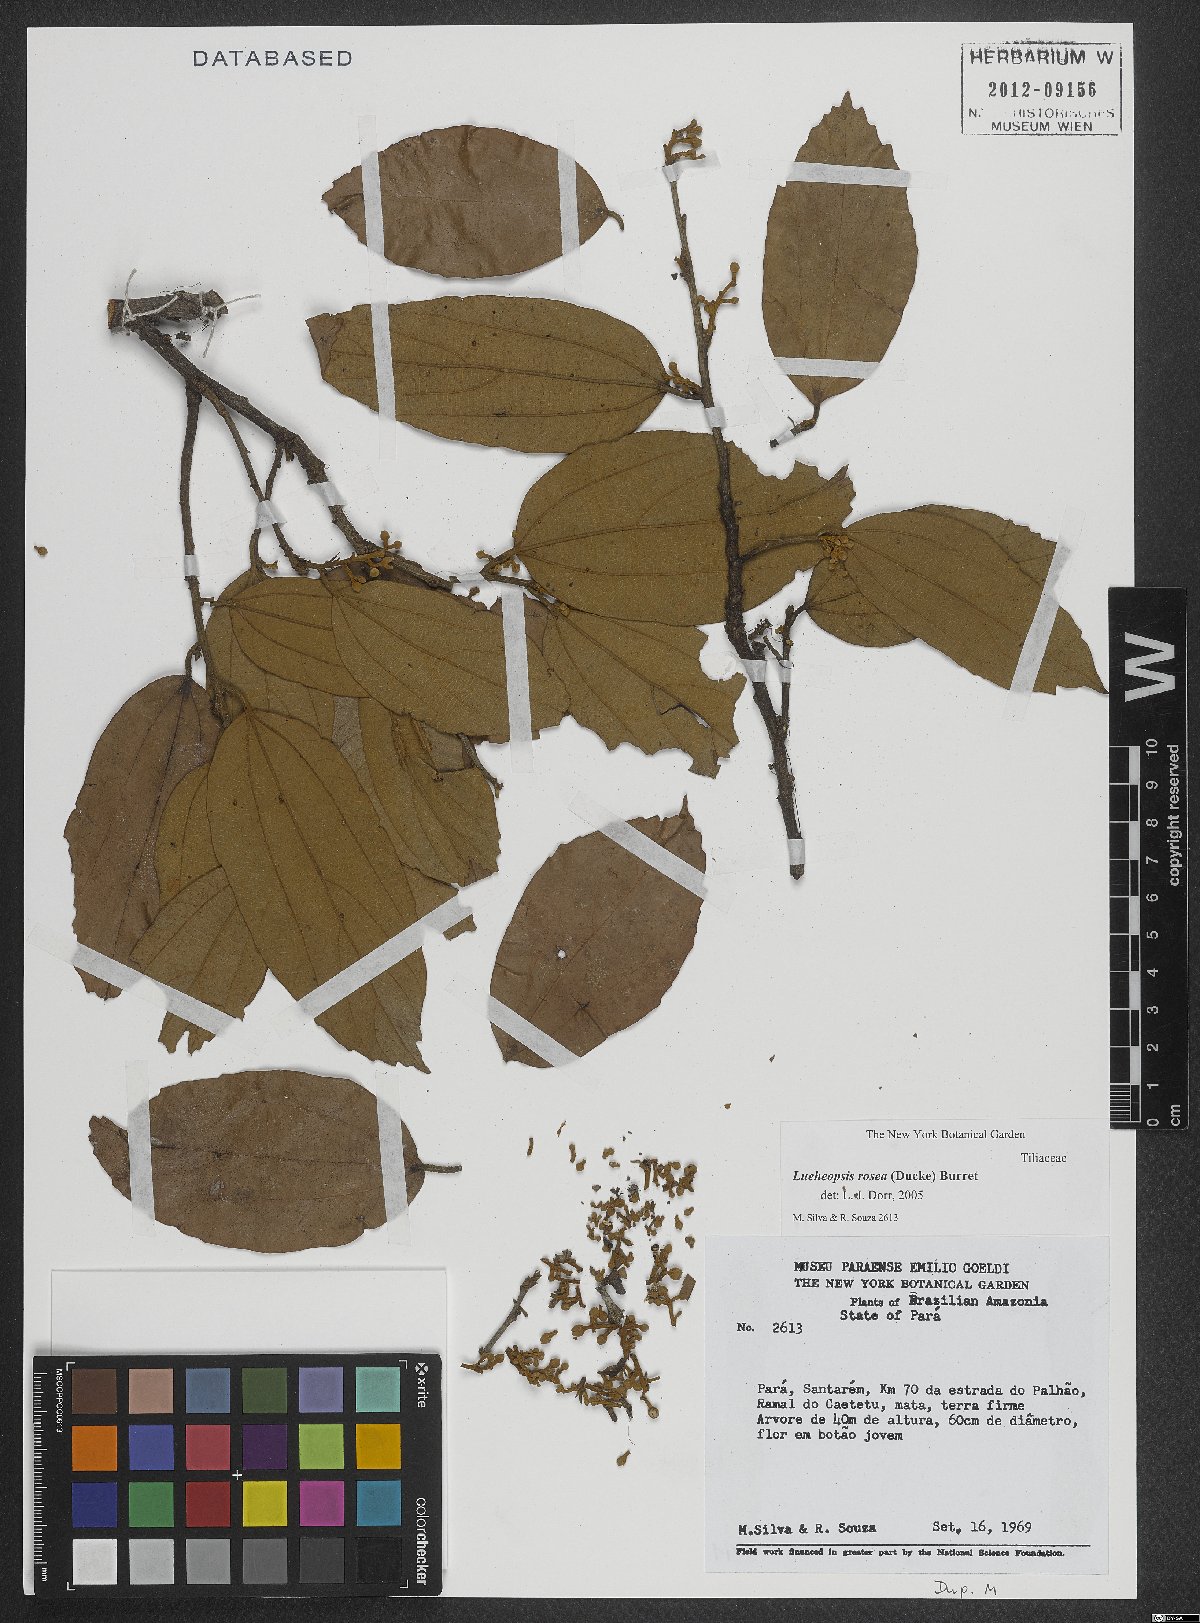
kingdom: Plantae
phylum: Tracheophyta
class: Magnoliopsida
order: Malvales
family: Malvaceae
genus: Lueheopsis
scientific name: Lueheopsis rosea
